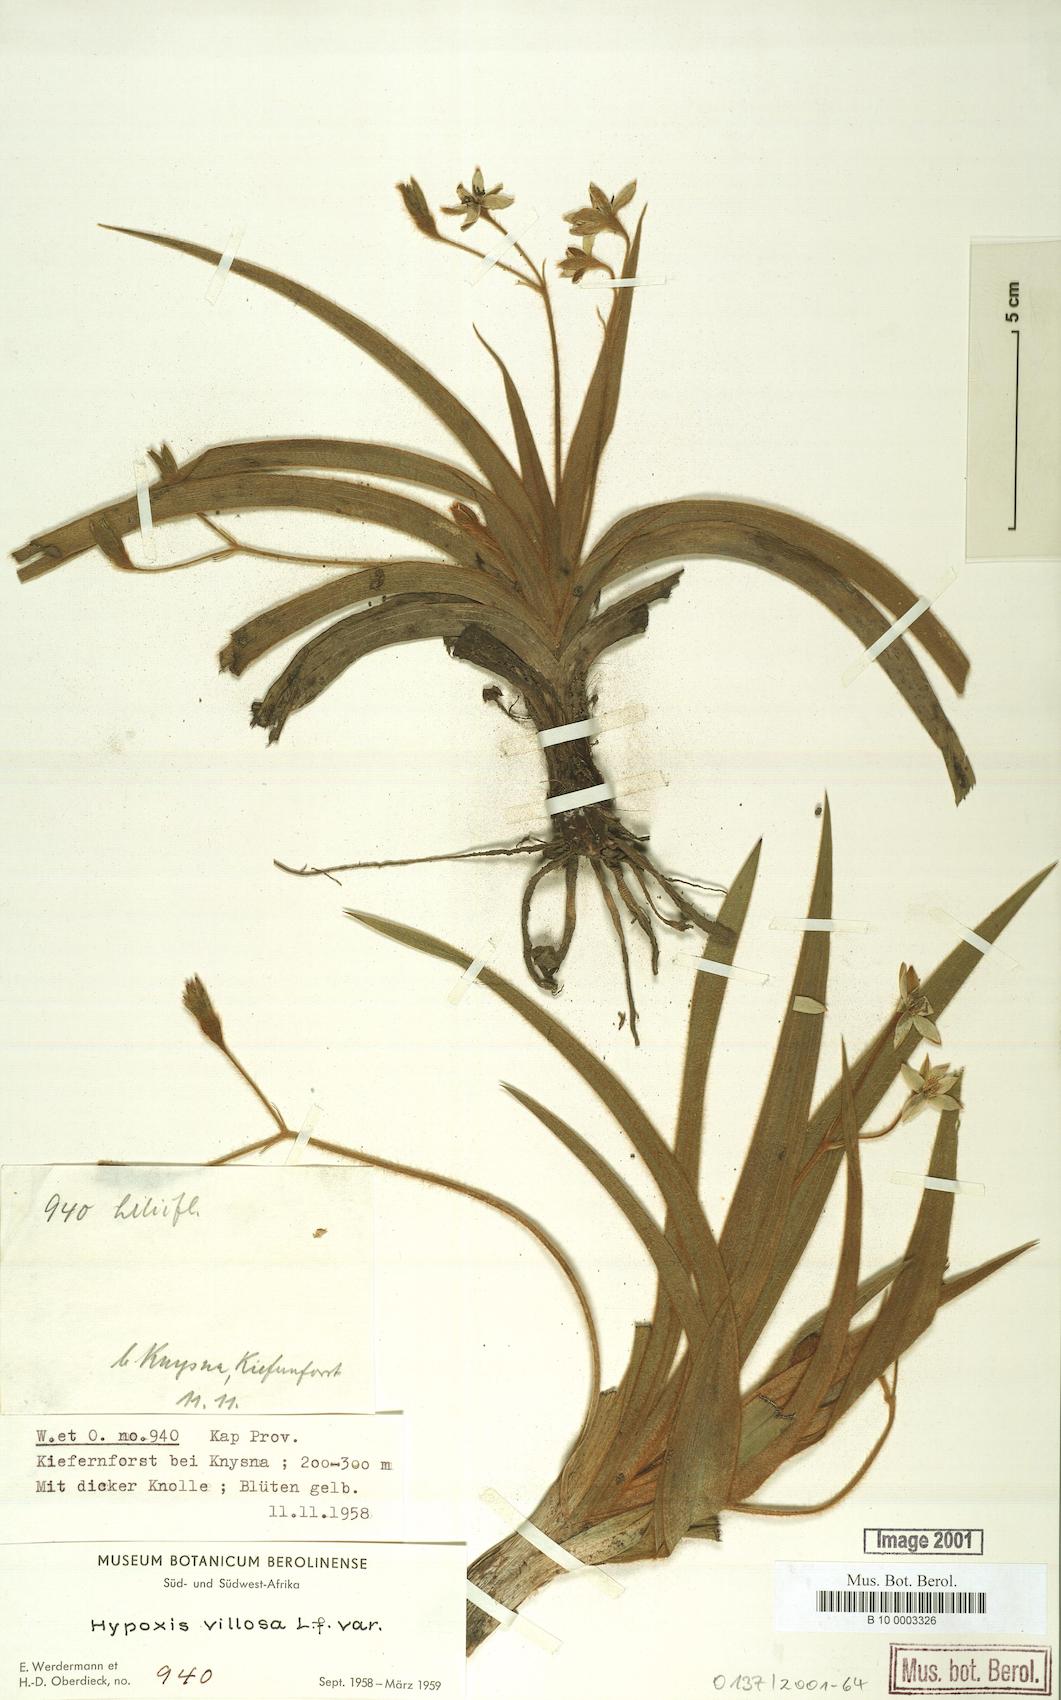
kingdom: Plantae
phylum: Tracheophyta
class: Liliopsida
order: Asparagales
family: Hypoxidaceae
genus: Hypoxis
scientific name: Hypoxis villosa
